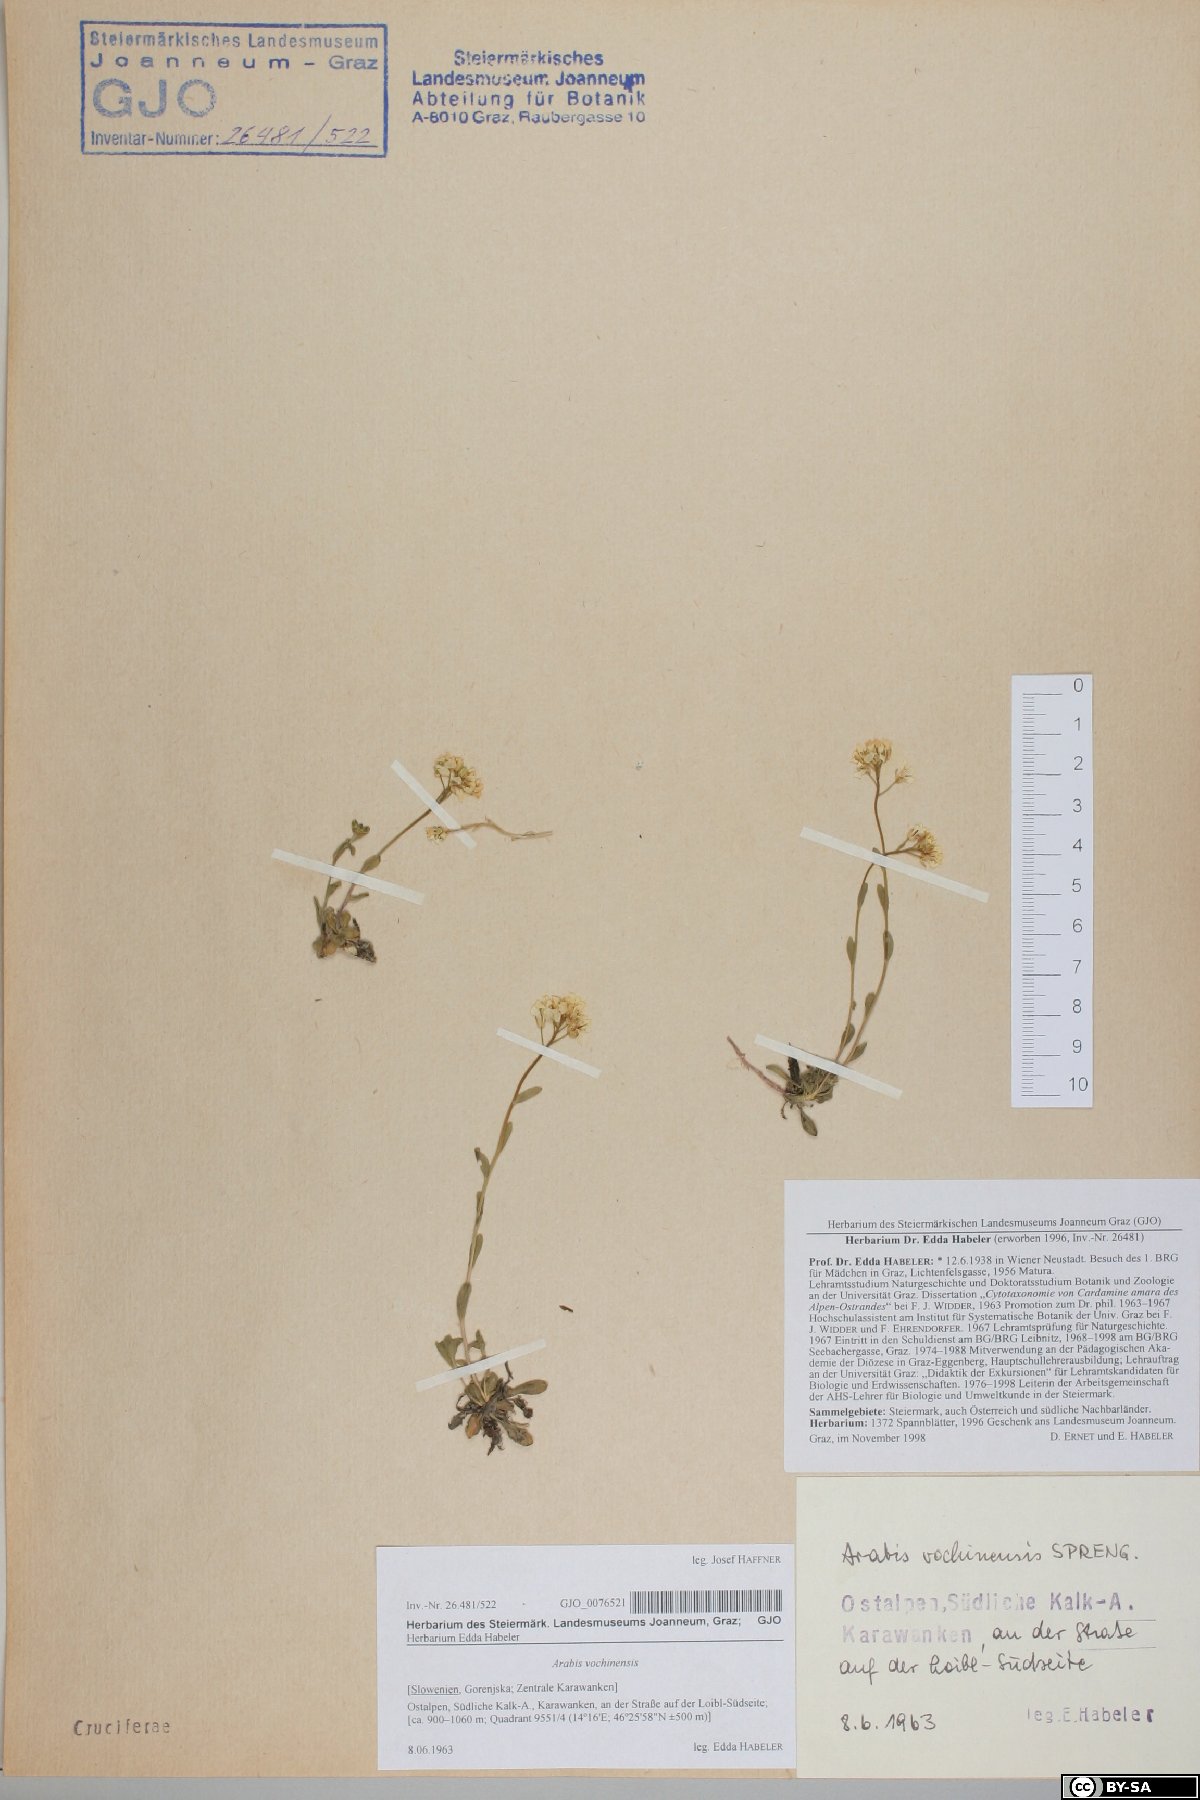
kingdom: Plantae
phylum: Tracheophyta
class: Magnoliopsida
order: Brassicales
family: Brassicaceae
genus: Arabis
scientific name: Arabis vochinensis
